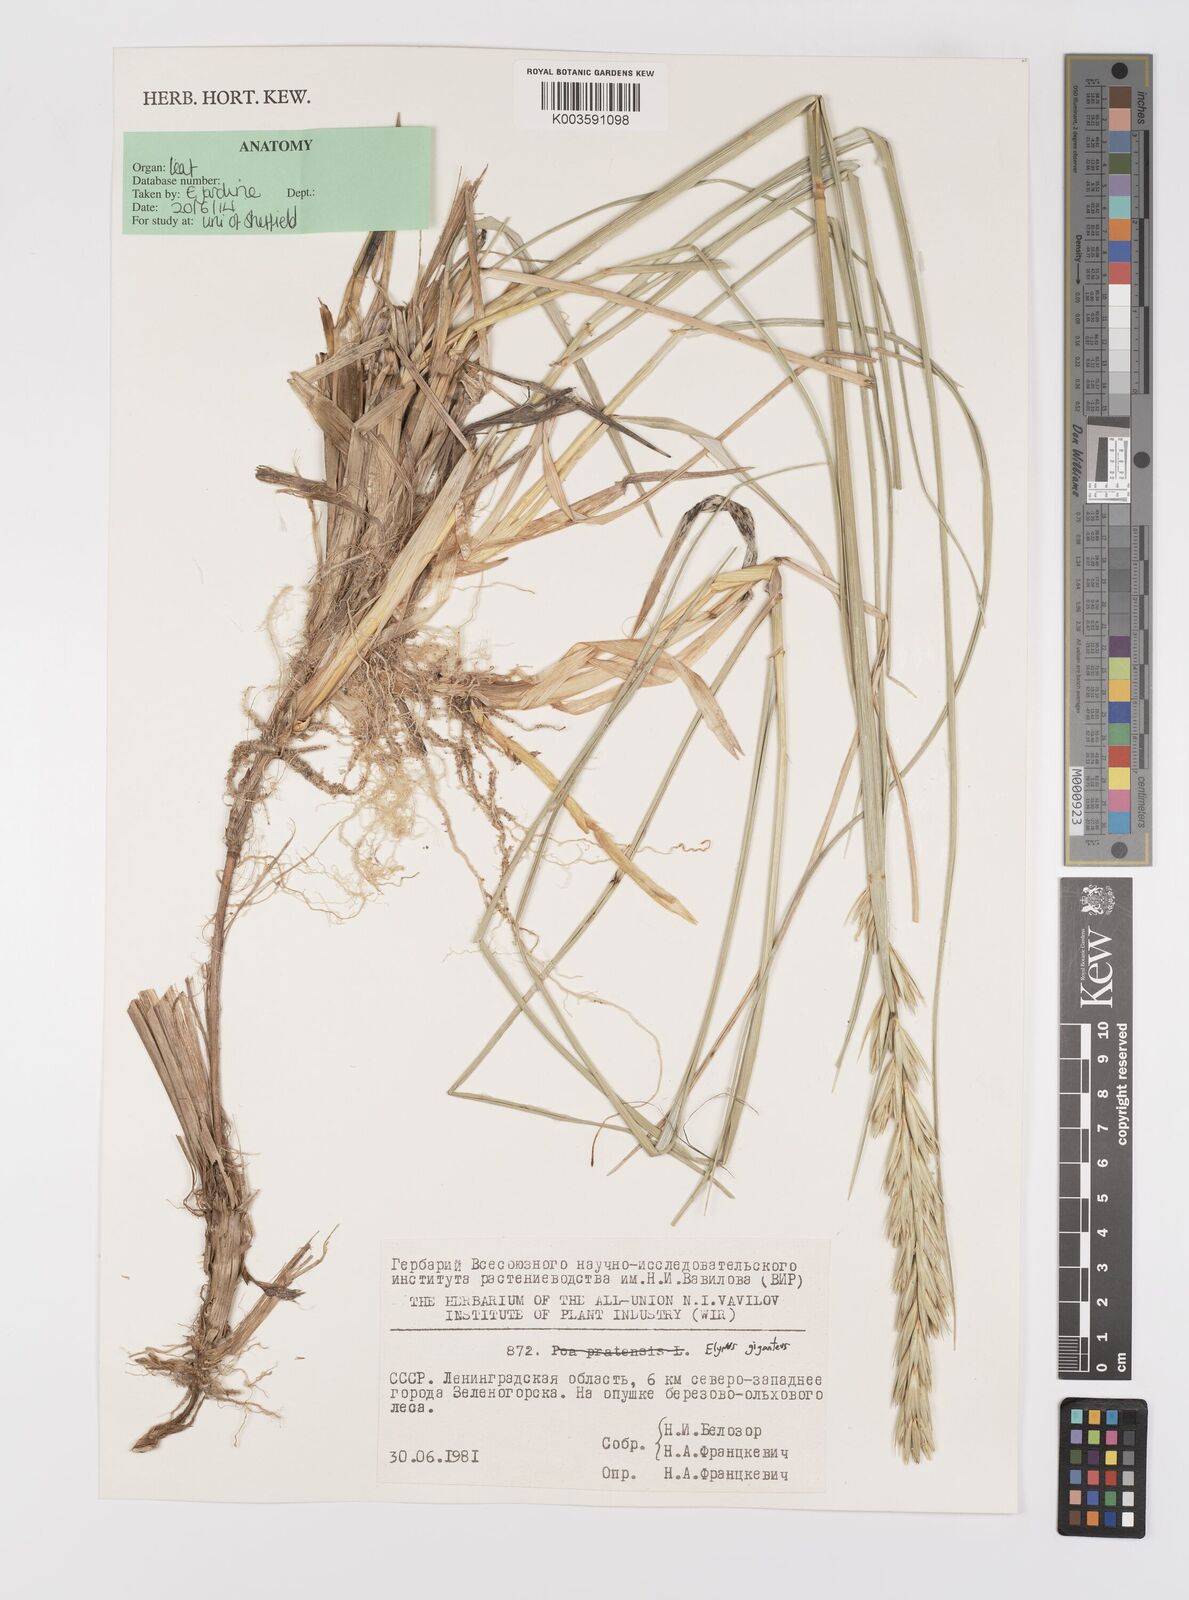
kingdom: Plantae
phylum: Tracheophyta
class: Liliopsida
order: Poales
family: Poaceae
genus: Leymus
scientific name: Leymus racemosus
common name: Mammoth wildrye
